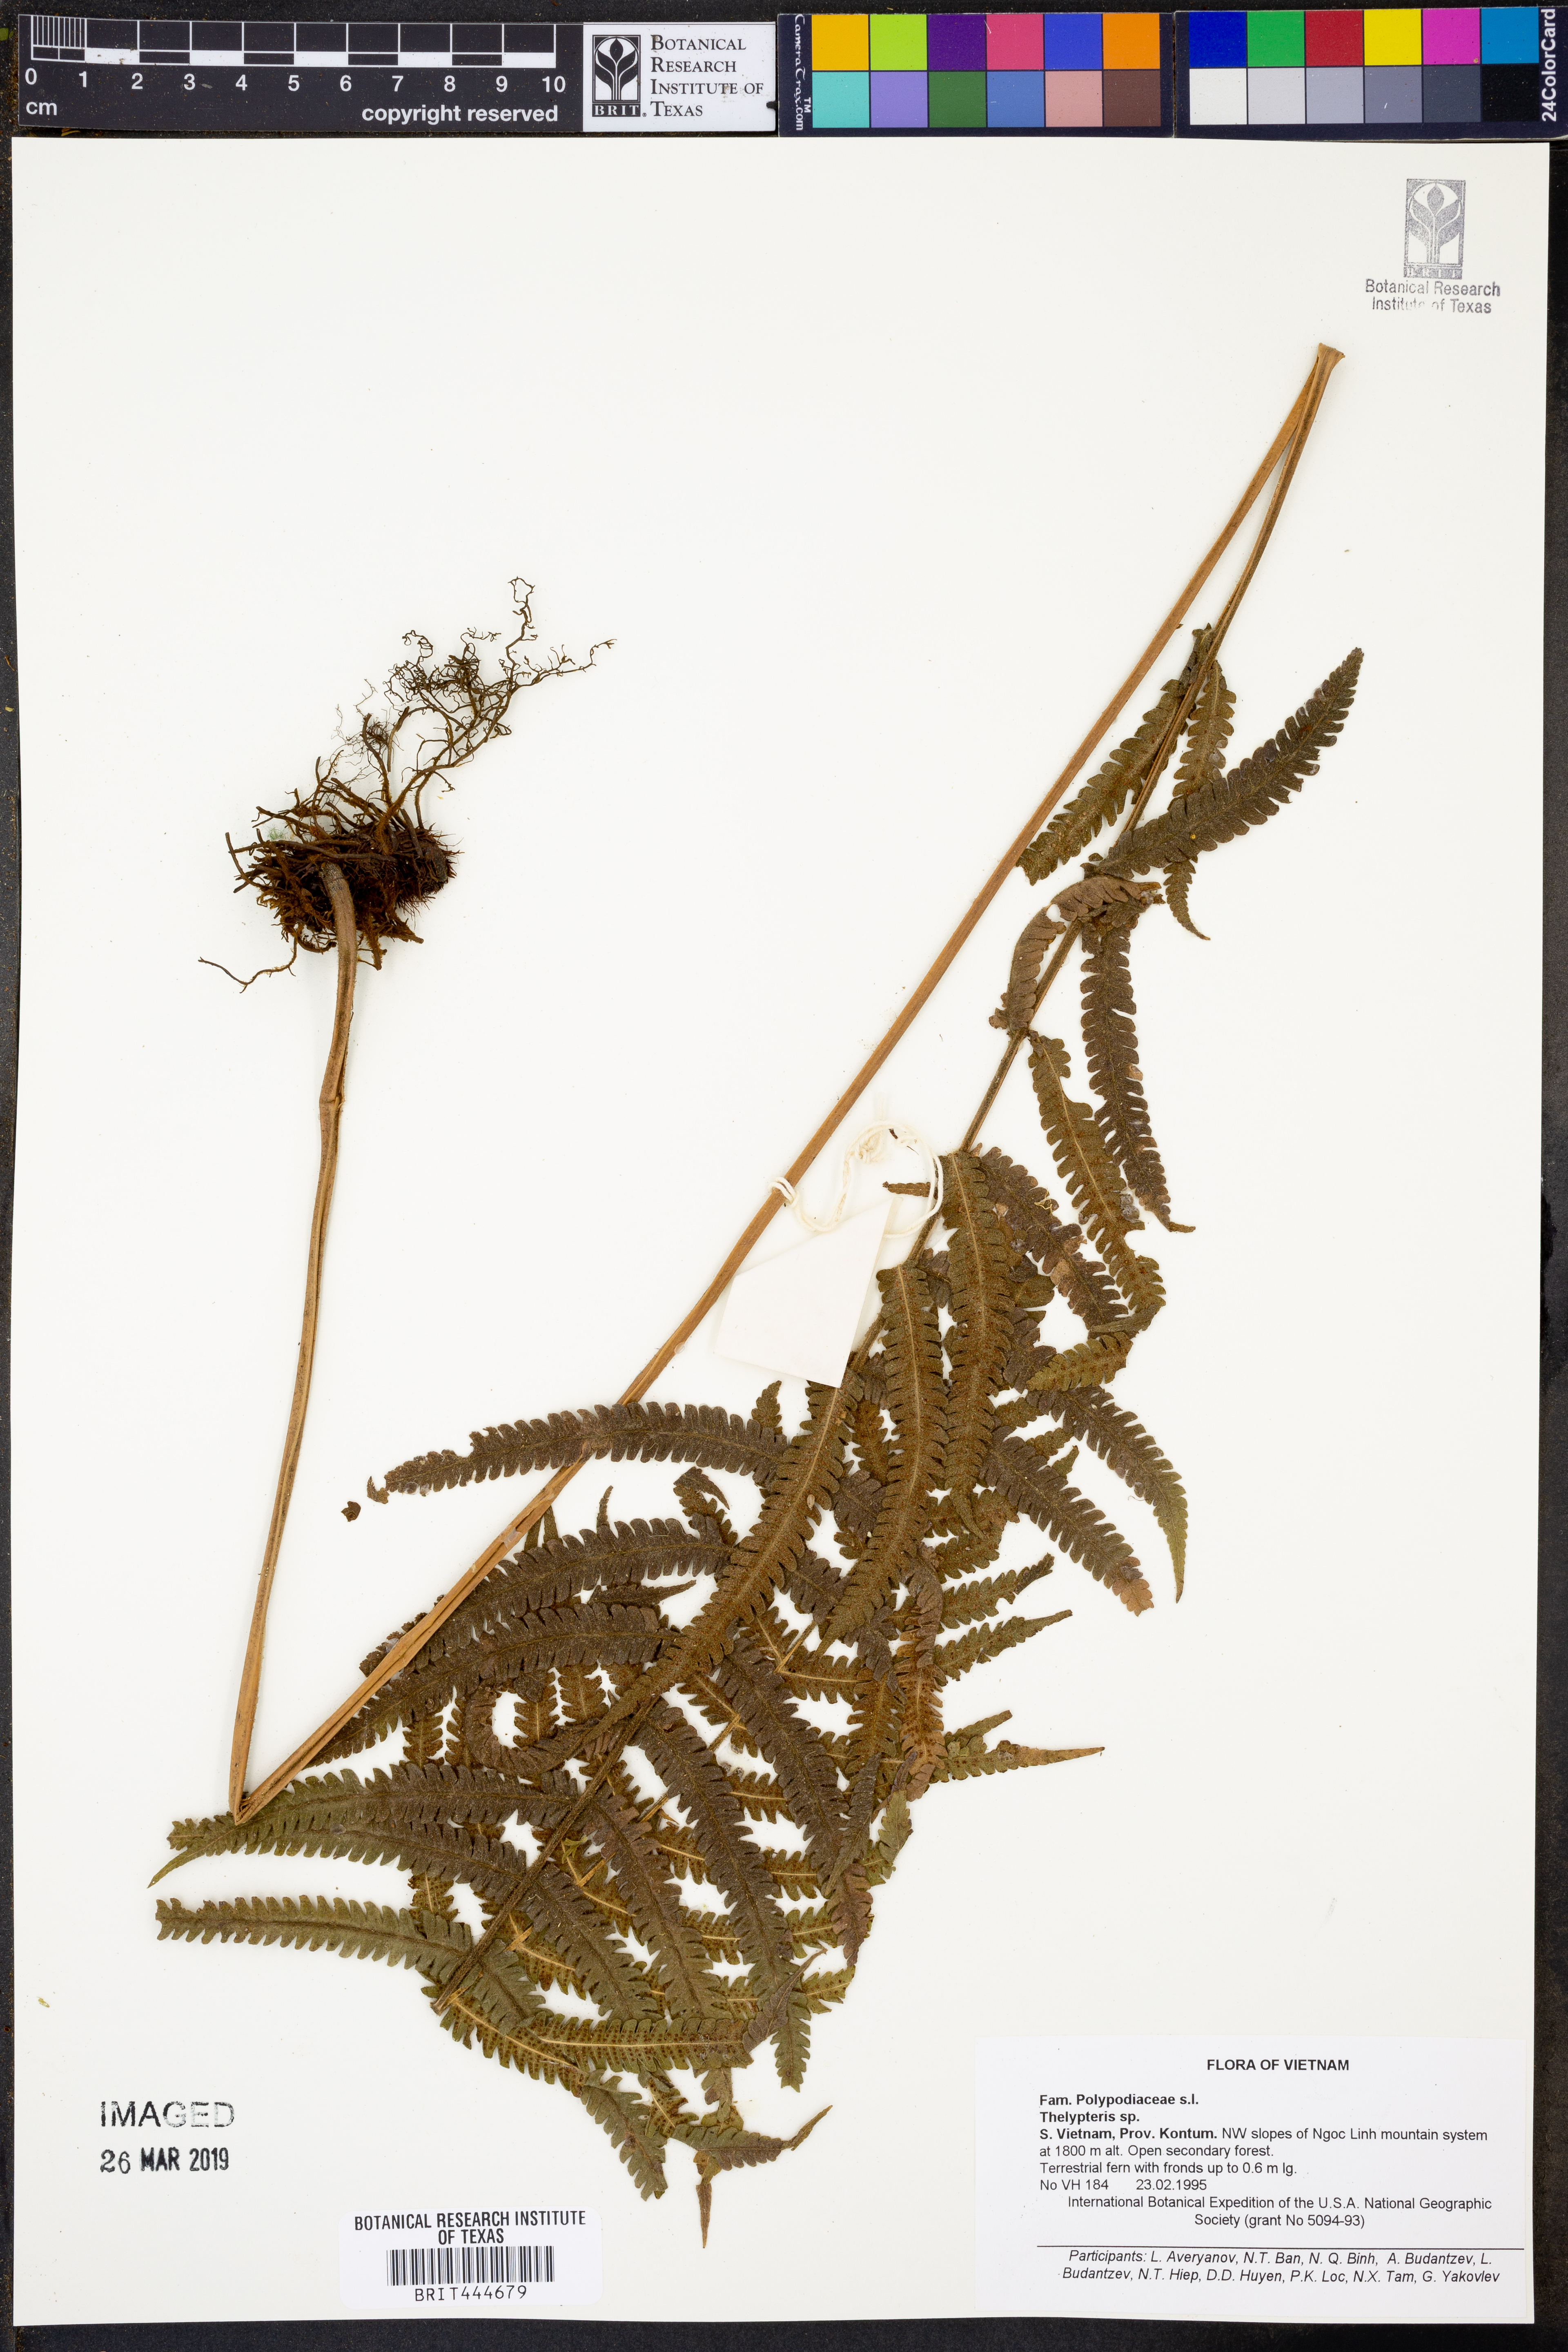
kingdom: Plantae
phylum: Tracheophyta
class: Polypodiopsida
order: Polypodiales
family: Thelypteridaceae
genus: Thelypteris
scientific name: Thelypteris
